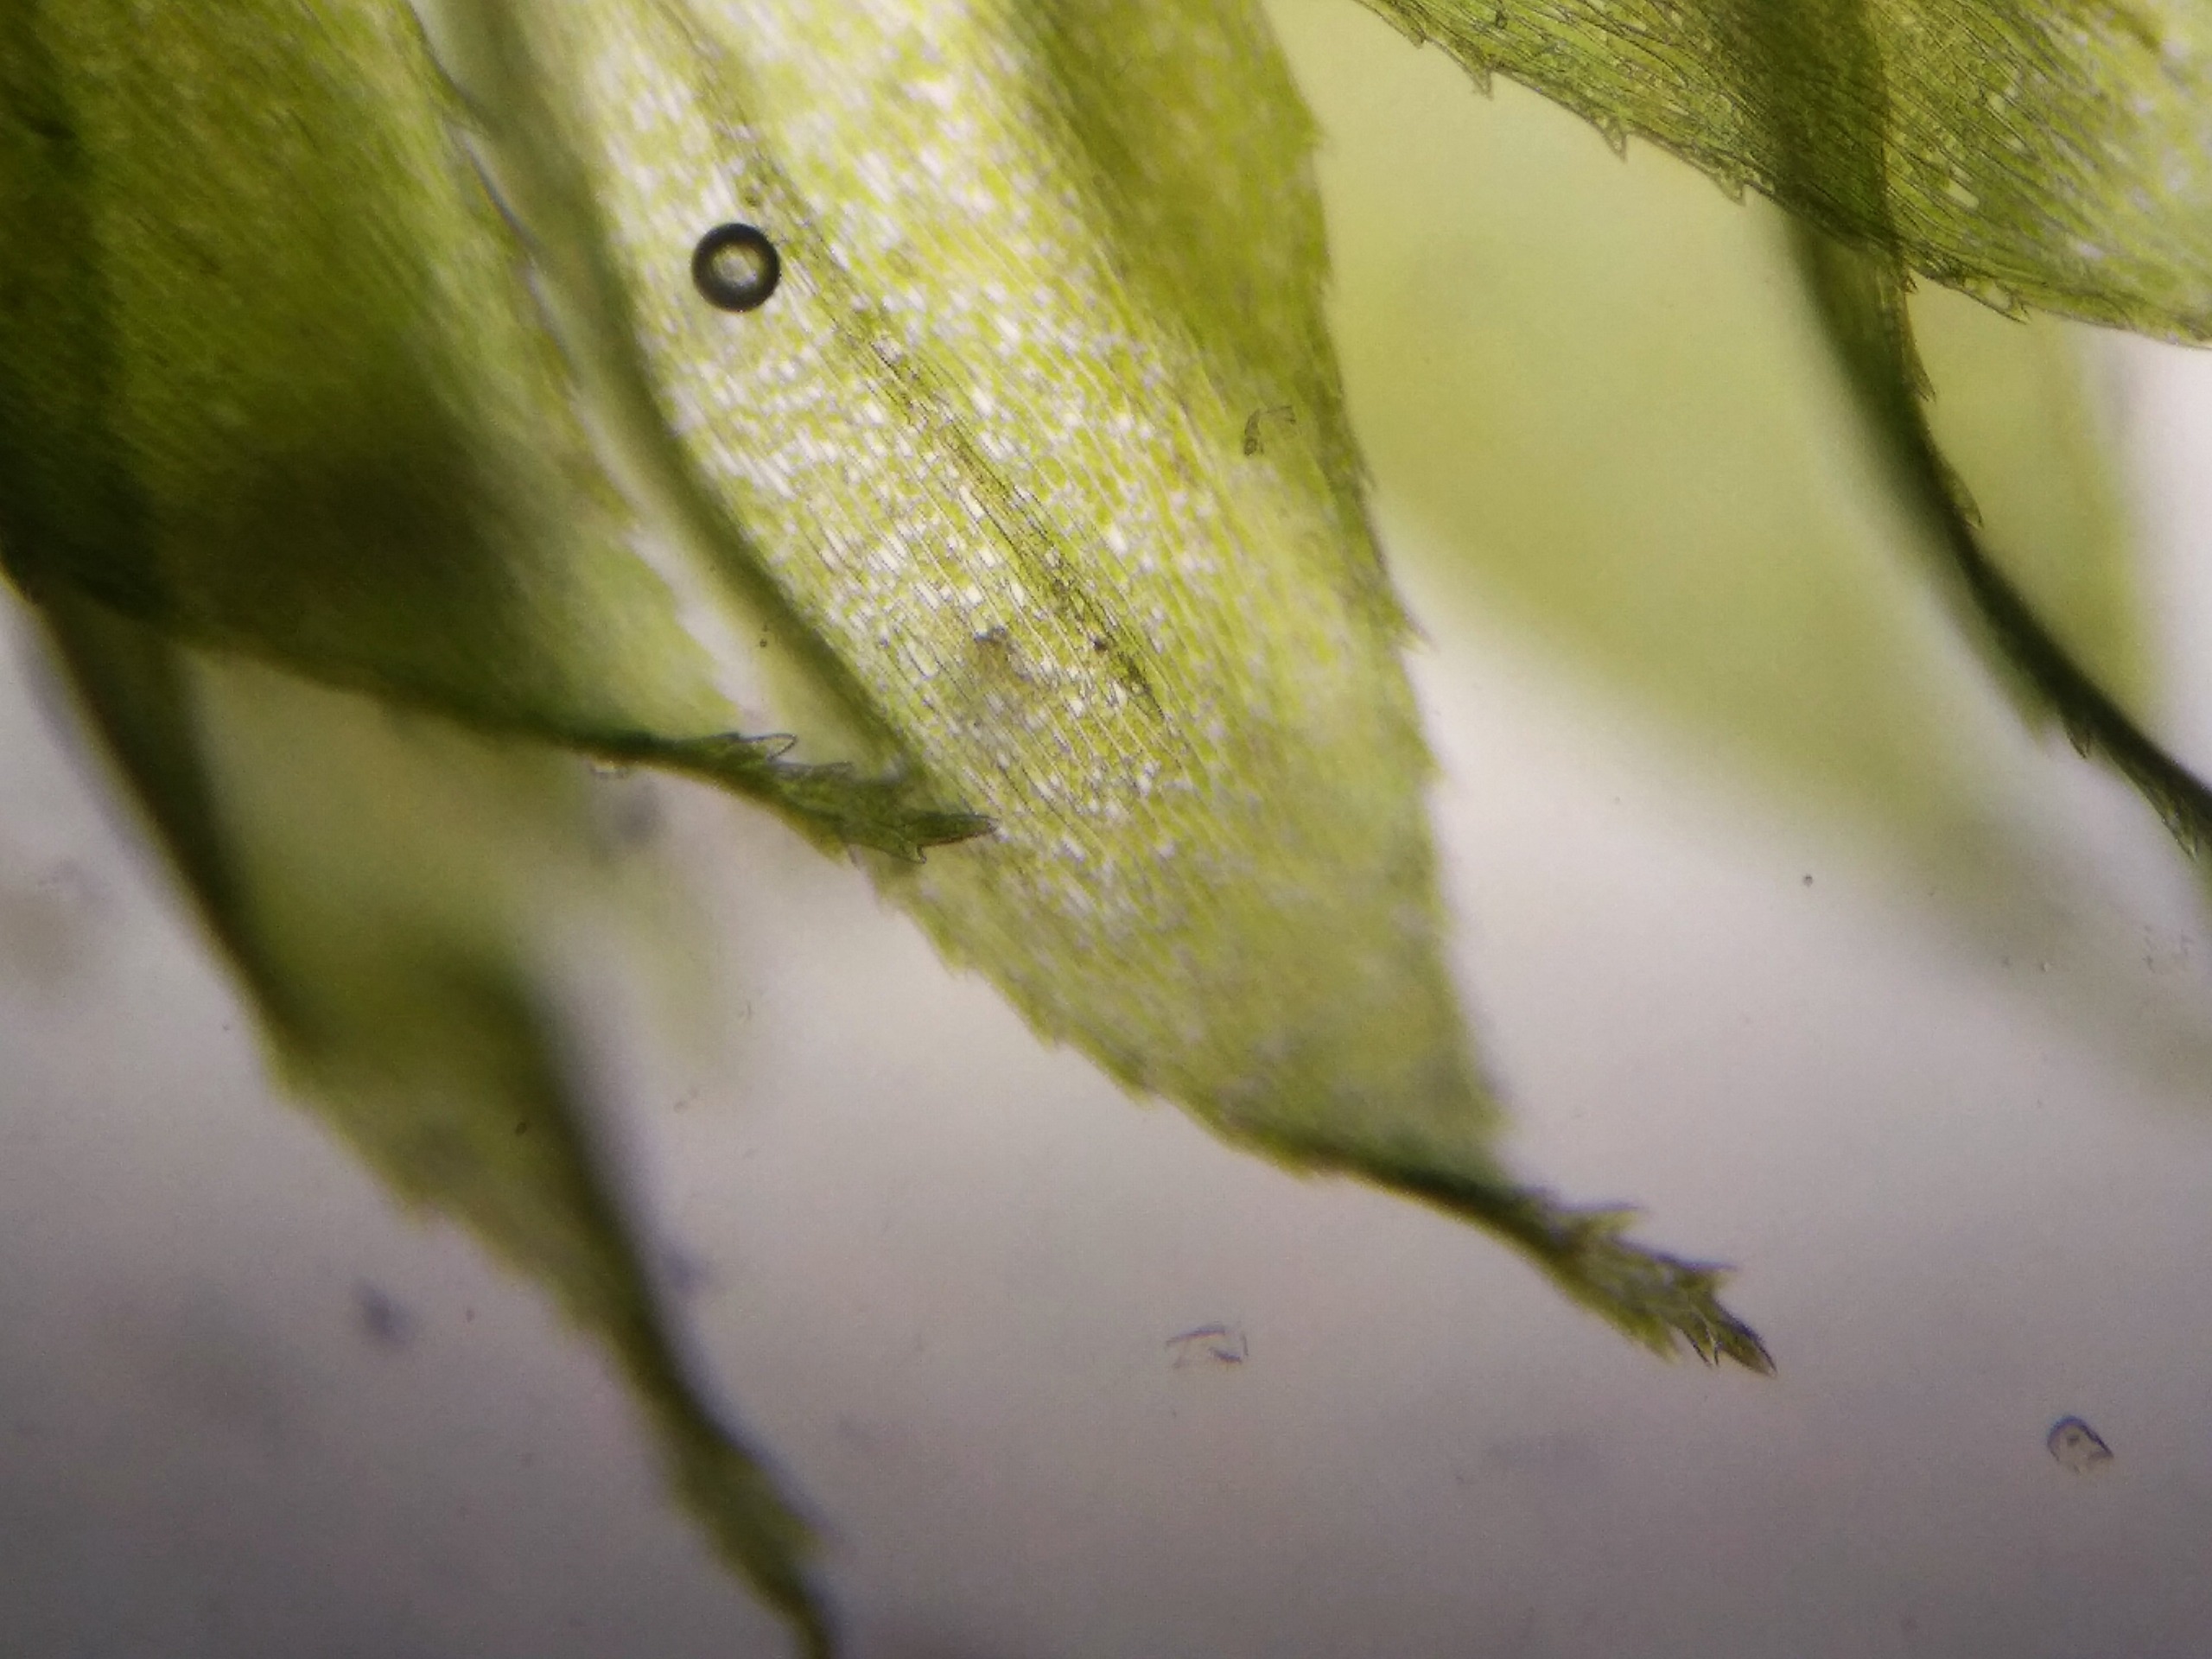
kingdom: Plantae
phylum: Bryophyta
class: Bryopsida
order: Hypnales
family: Brachytheciaceae
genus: Sciuro-hypnum
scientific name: Sciuro-hypnum curtum
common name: Grøn kortkapsel
